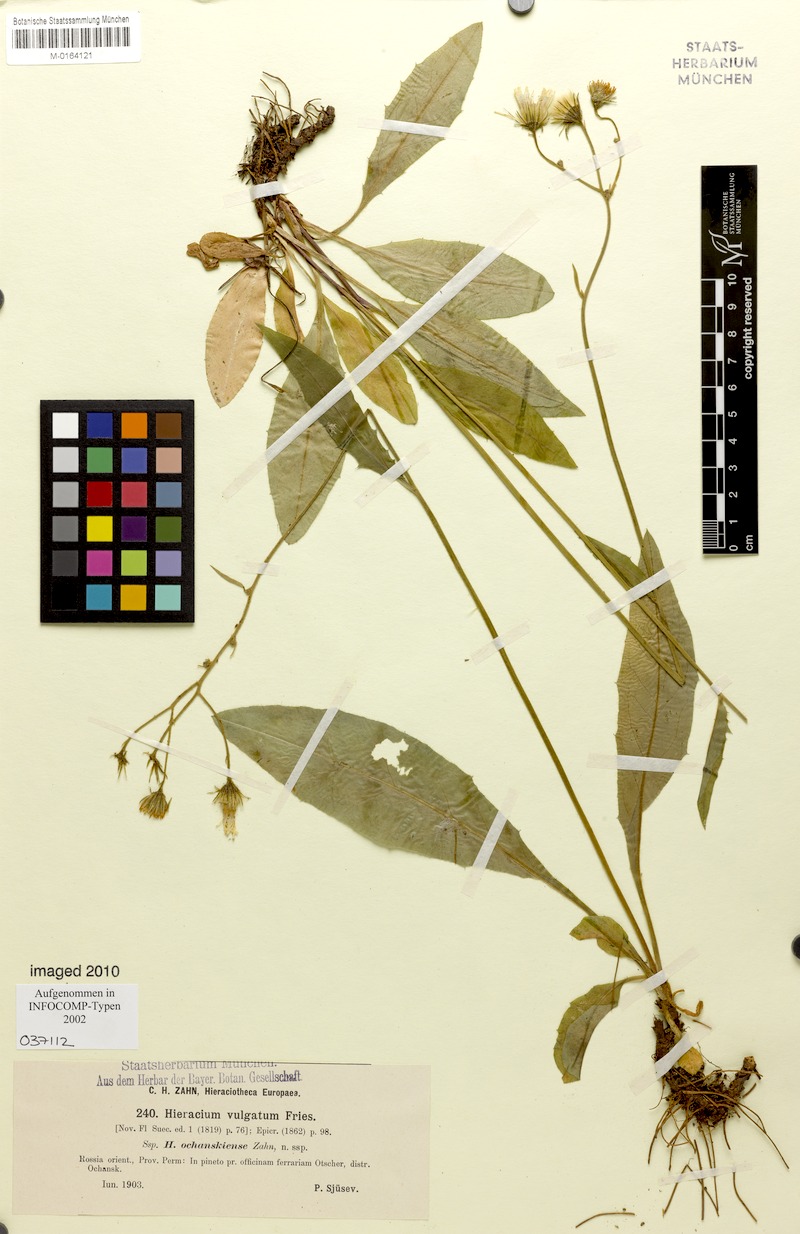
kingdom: Plantae
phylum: Tracheophyta
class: Magnoliopsida
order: Asterales
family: Asteraceae
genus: Hieracium
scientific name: Hieracium lachenalii
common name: Common hawkweed
